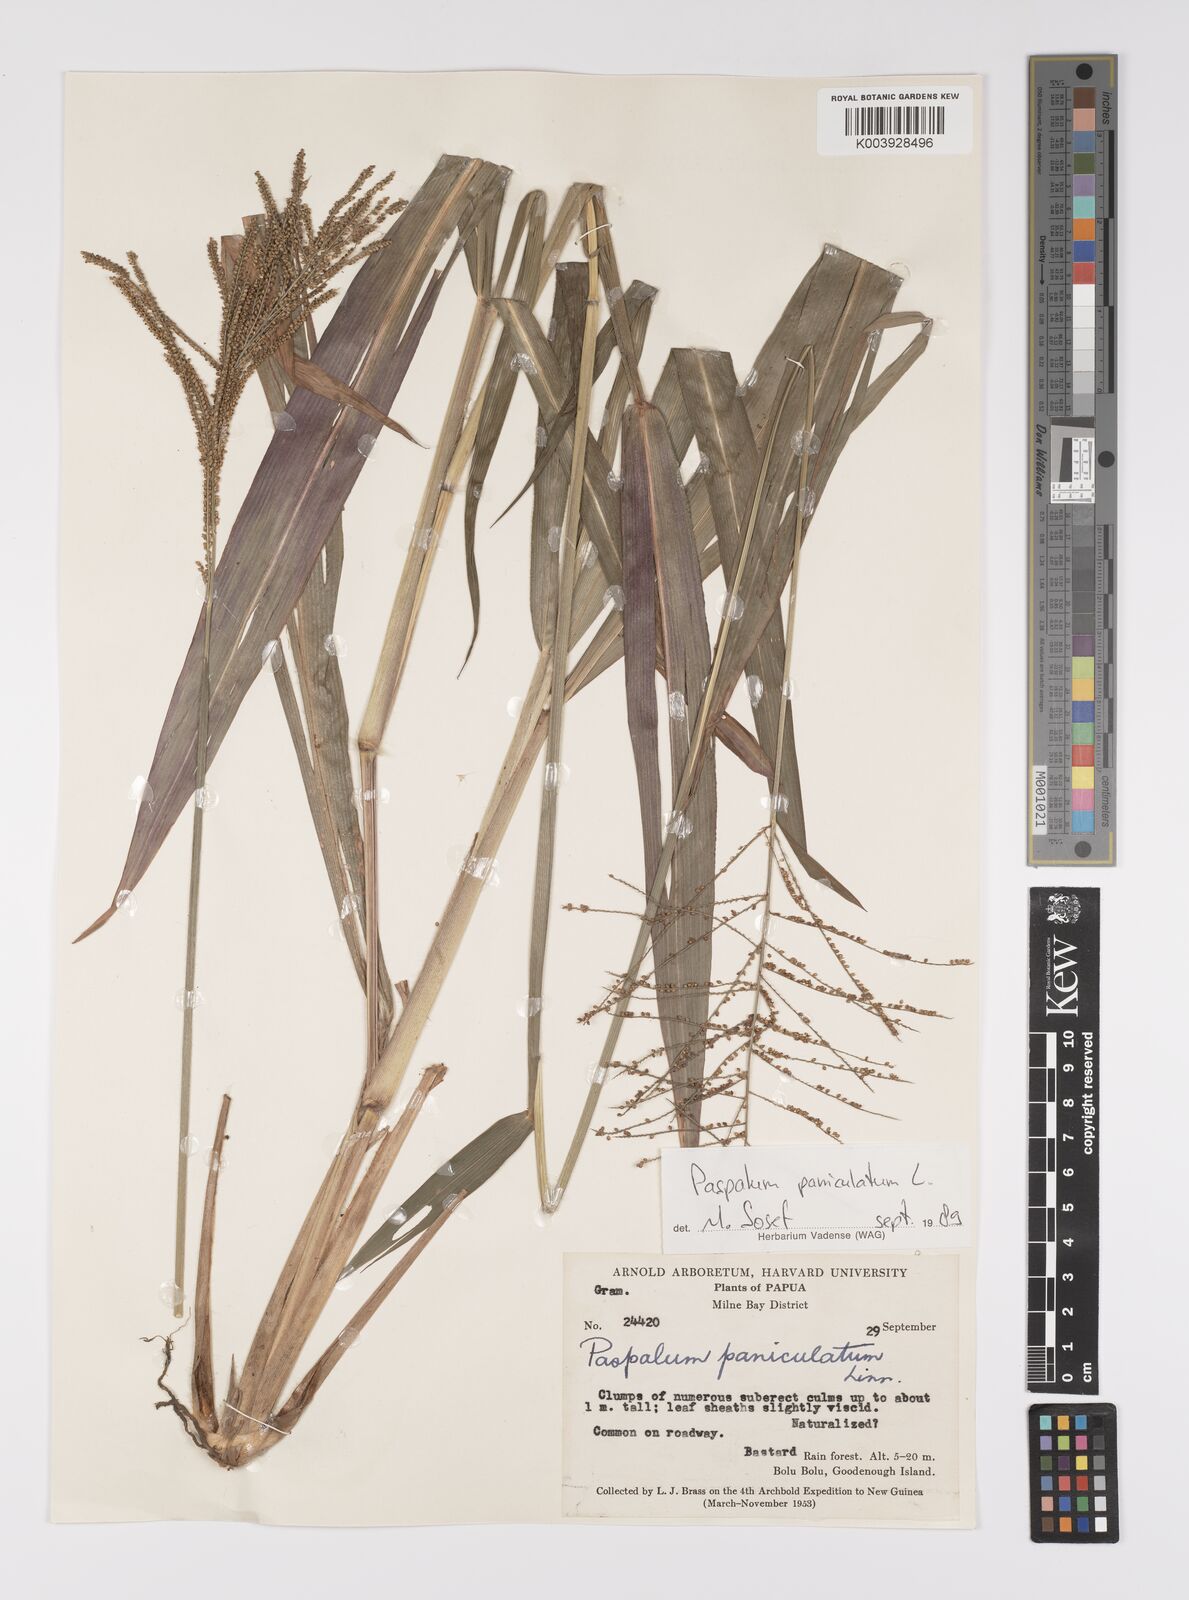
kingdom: Plantae
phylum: Tracheophyta
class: Liliopsida
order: Poales
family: Poaceae
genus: Paspalum
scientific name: Paspalum paniculatum
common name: Arrocillo
